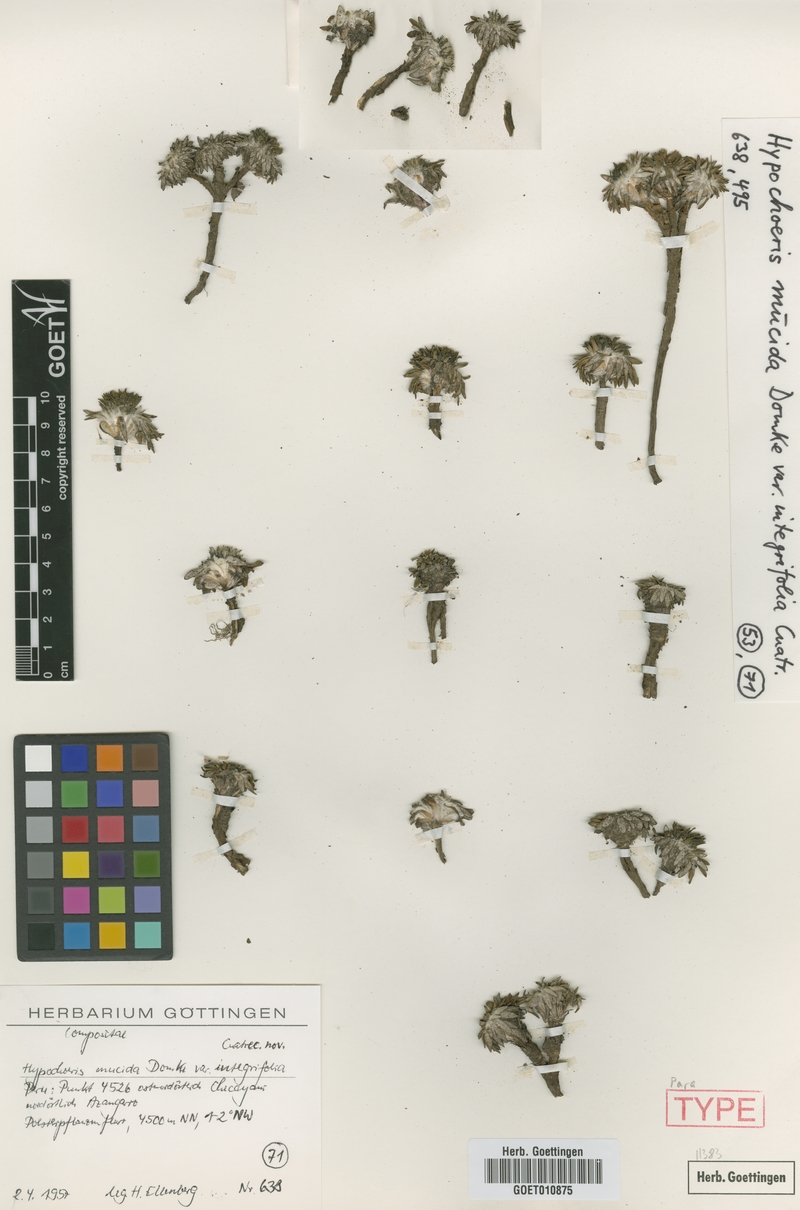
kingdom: Plantae
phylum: Tracheophyta
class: Magnoliopsida
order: Asterales
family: Asteraceae
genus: Hypochaeris
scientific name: Hypochaeris mucida
